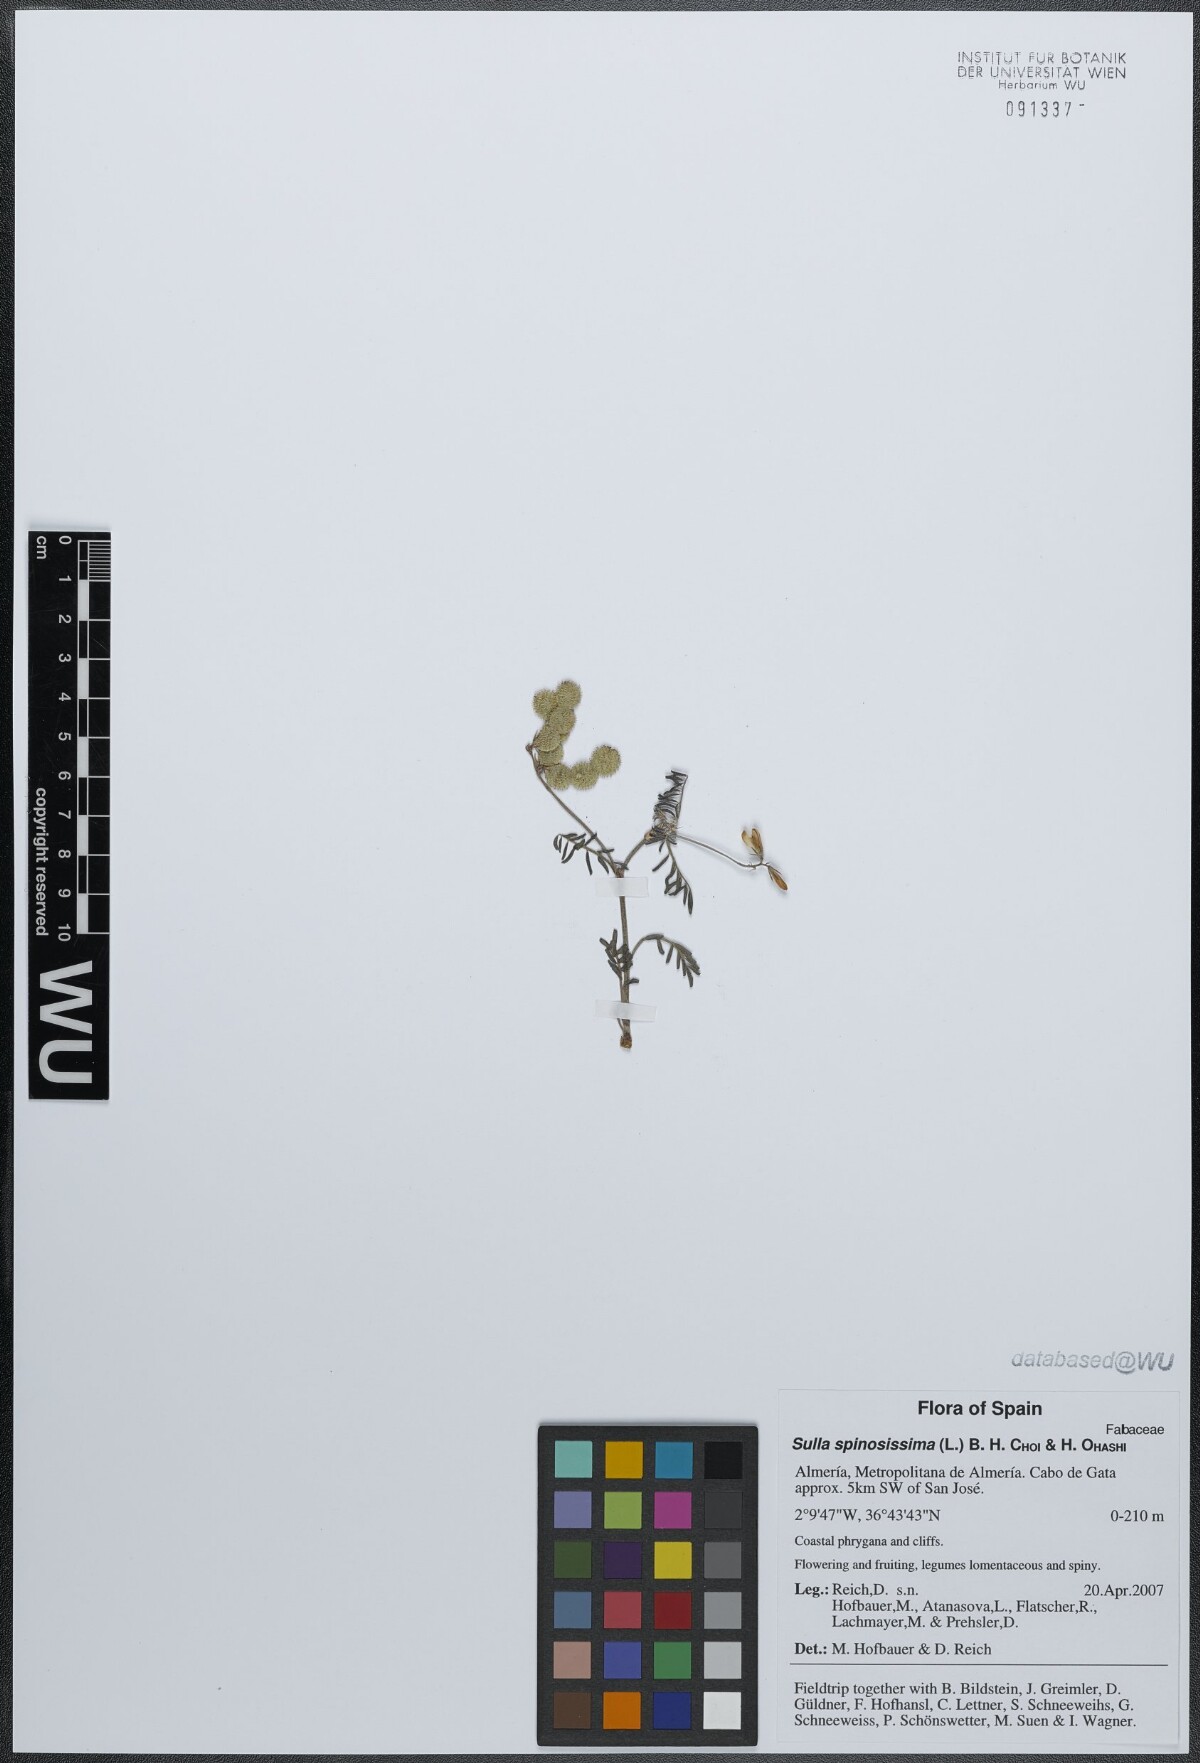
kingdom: Plantae
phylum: Tracheophyta
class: Magnoliopsida
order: Fabales
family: Fabaceae
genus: Sulla
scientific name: Sulla spinosissima
